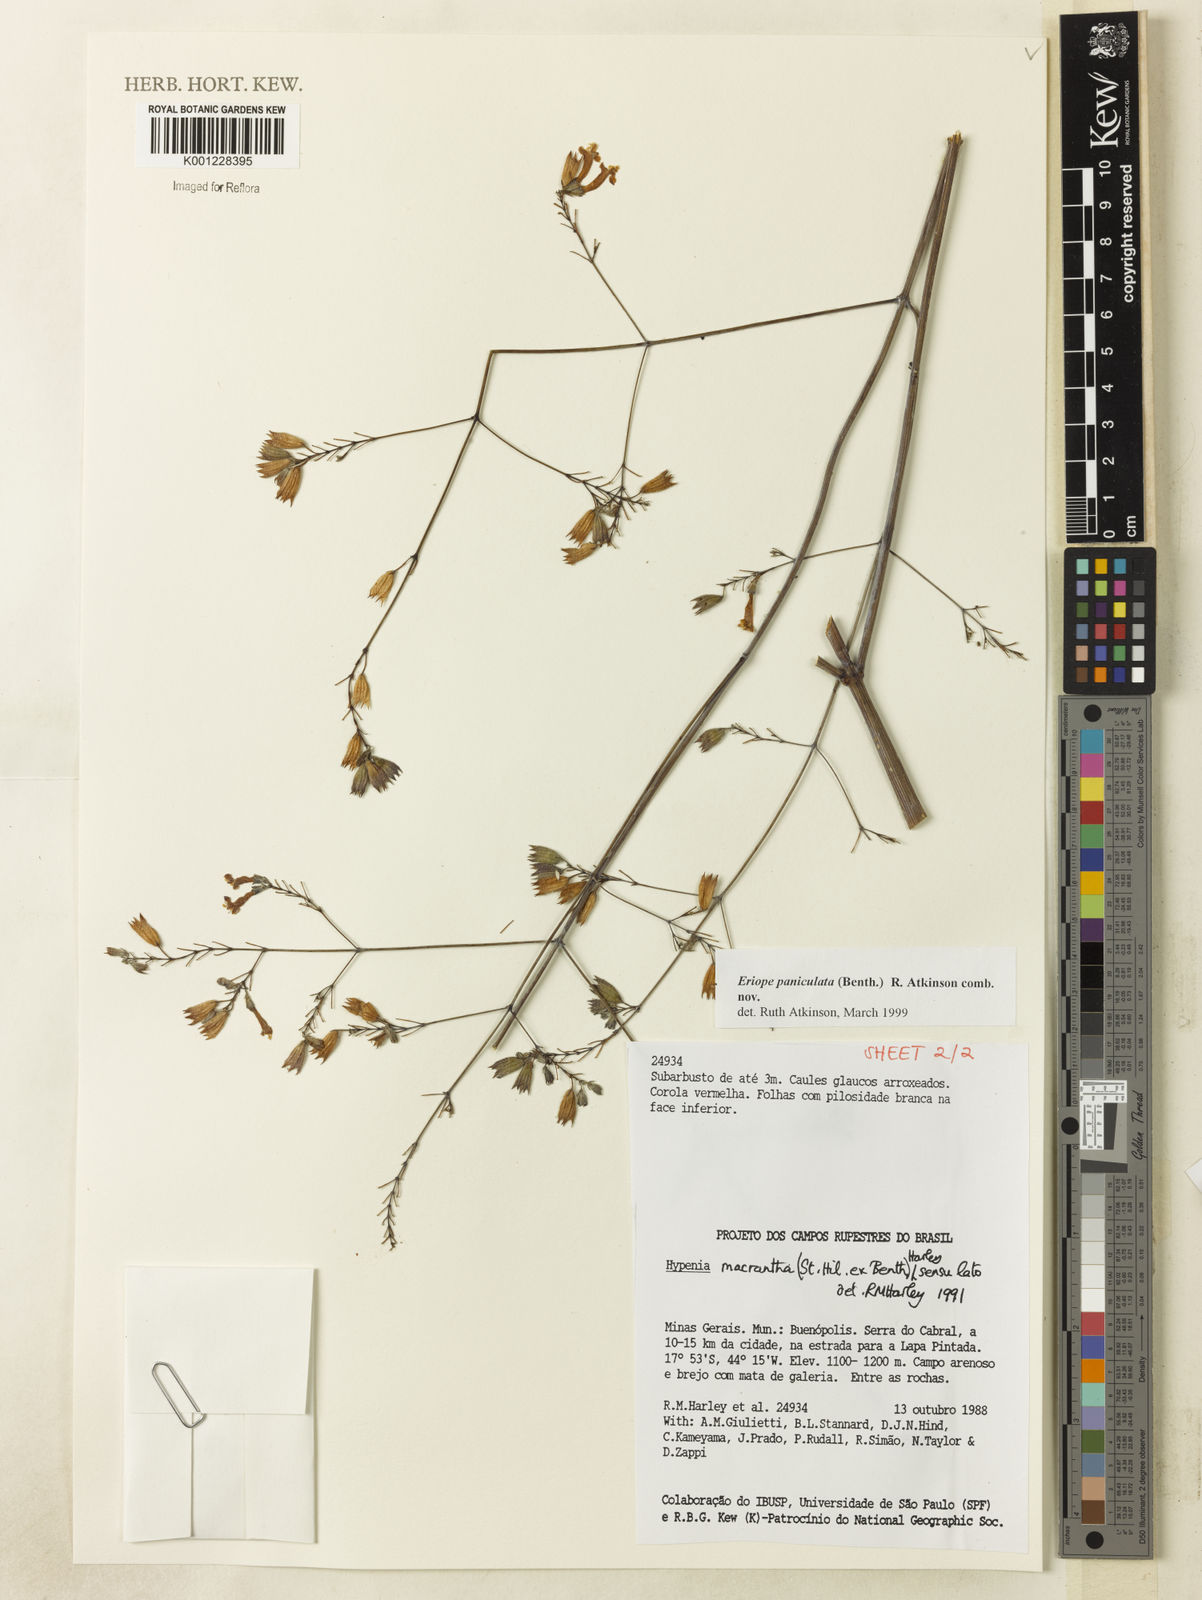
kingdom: Plantae
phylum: Tracheophyta
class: Magnoliopsida
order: Lamiales
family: Lamiaceae
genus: Hypenia
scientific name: Hypenia paniculata
